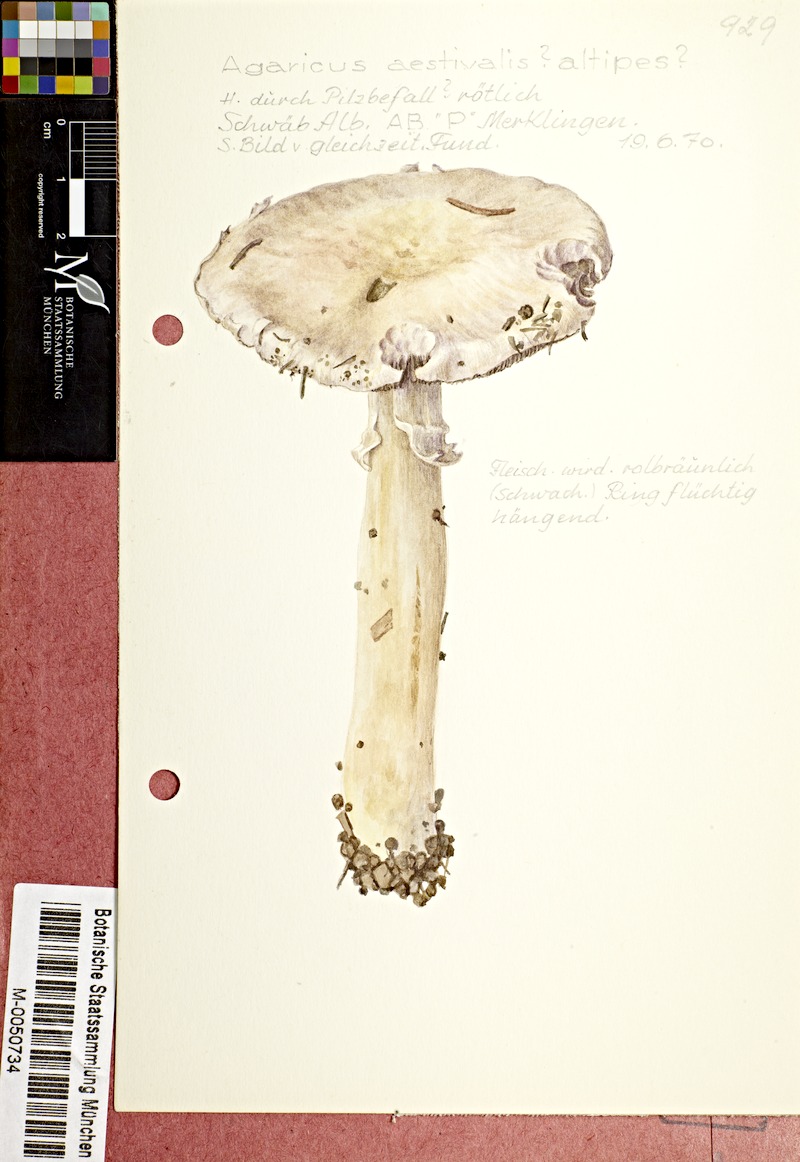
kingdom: Fungi
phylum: Basidiomycota
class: Agaricomycetes
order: Agaricales
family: Agaricaceae
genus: Agaricus
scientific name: Agaricus altipes
